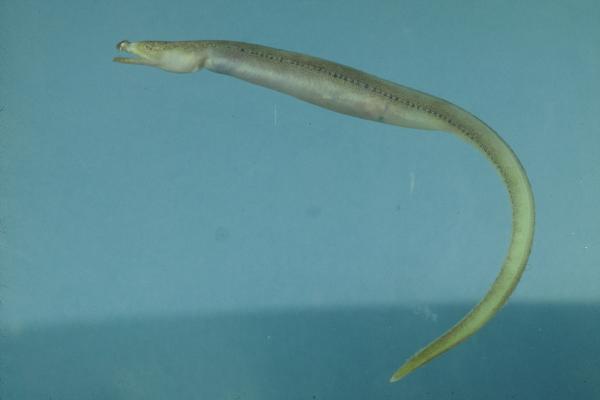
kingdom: Animalia
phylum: Chordata
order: Anguilliformes
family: Ophichthidae
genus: Brachysomophis
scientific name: Brachysomophis crocodilinus
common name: Crocodile snake eel
